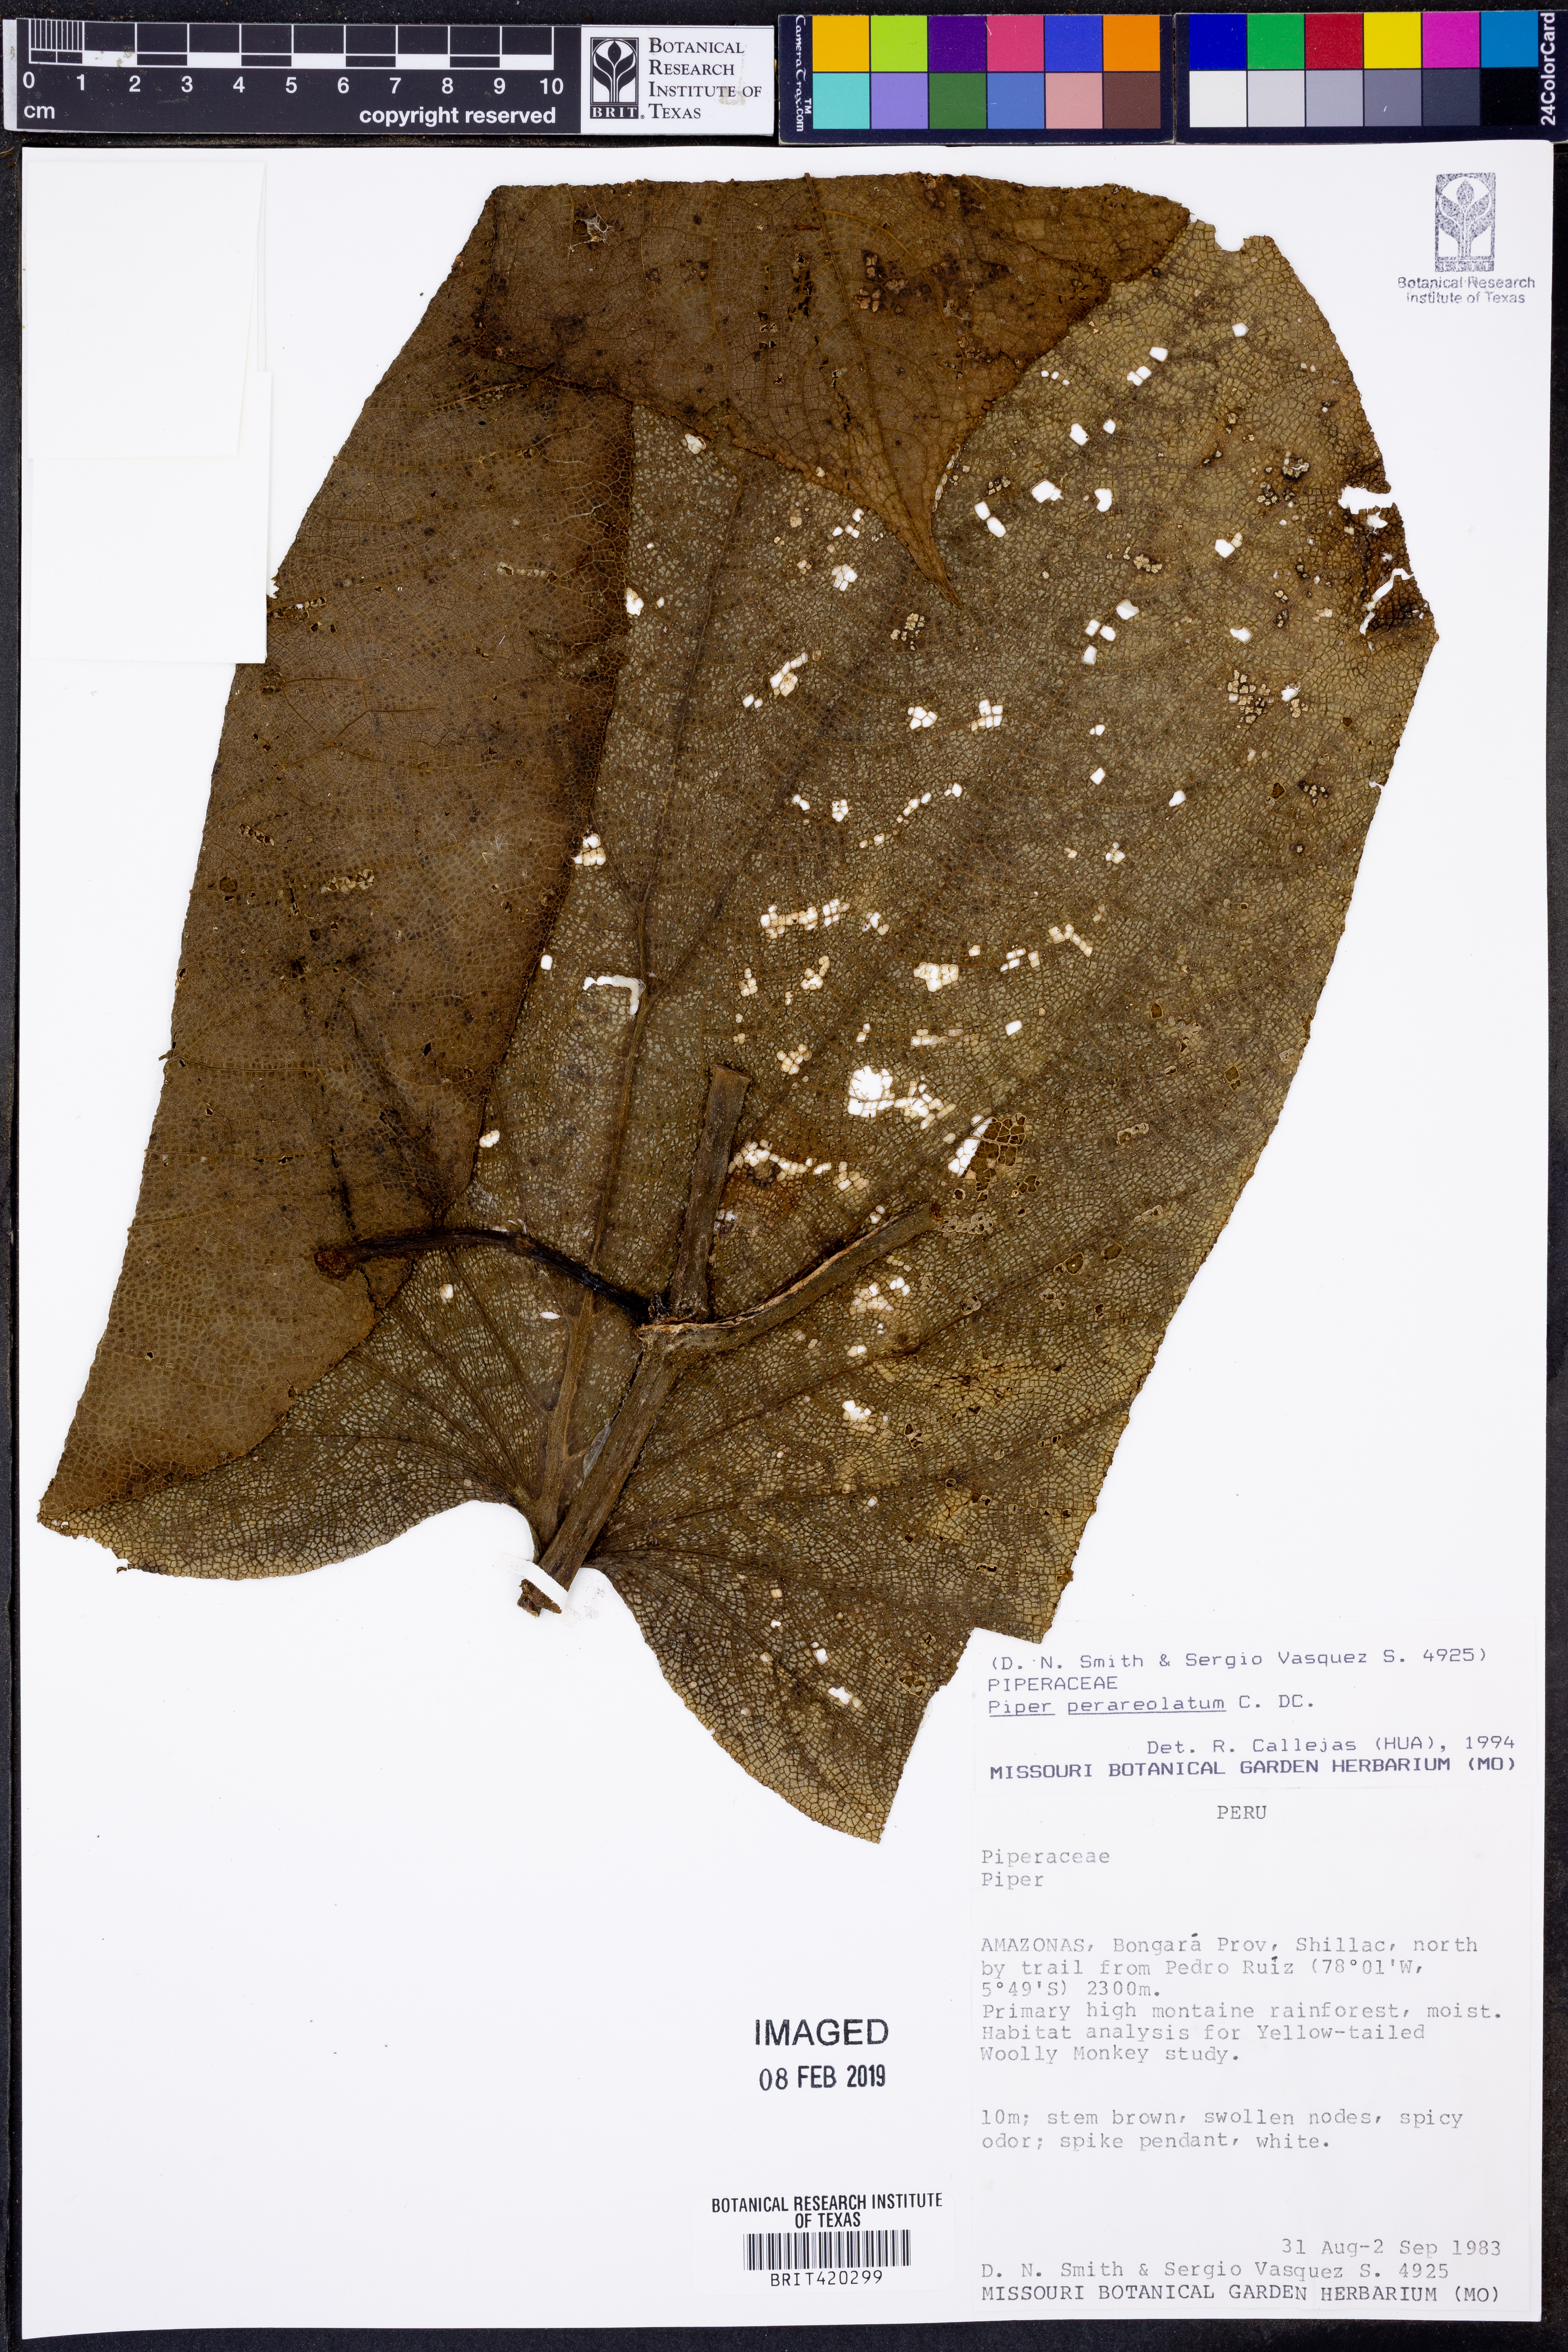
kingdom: Plantae
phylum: Tracheophyta
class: Magnoliopsida
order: Piperales
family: Piperaceae
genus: Piper
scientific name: Piper perareolatum
